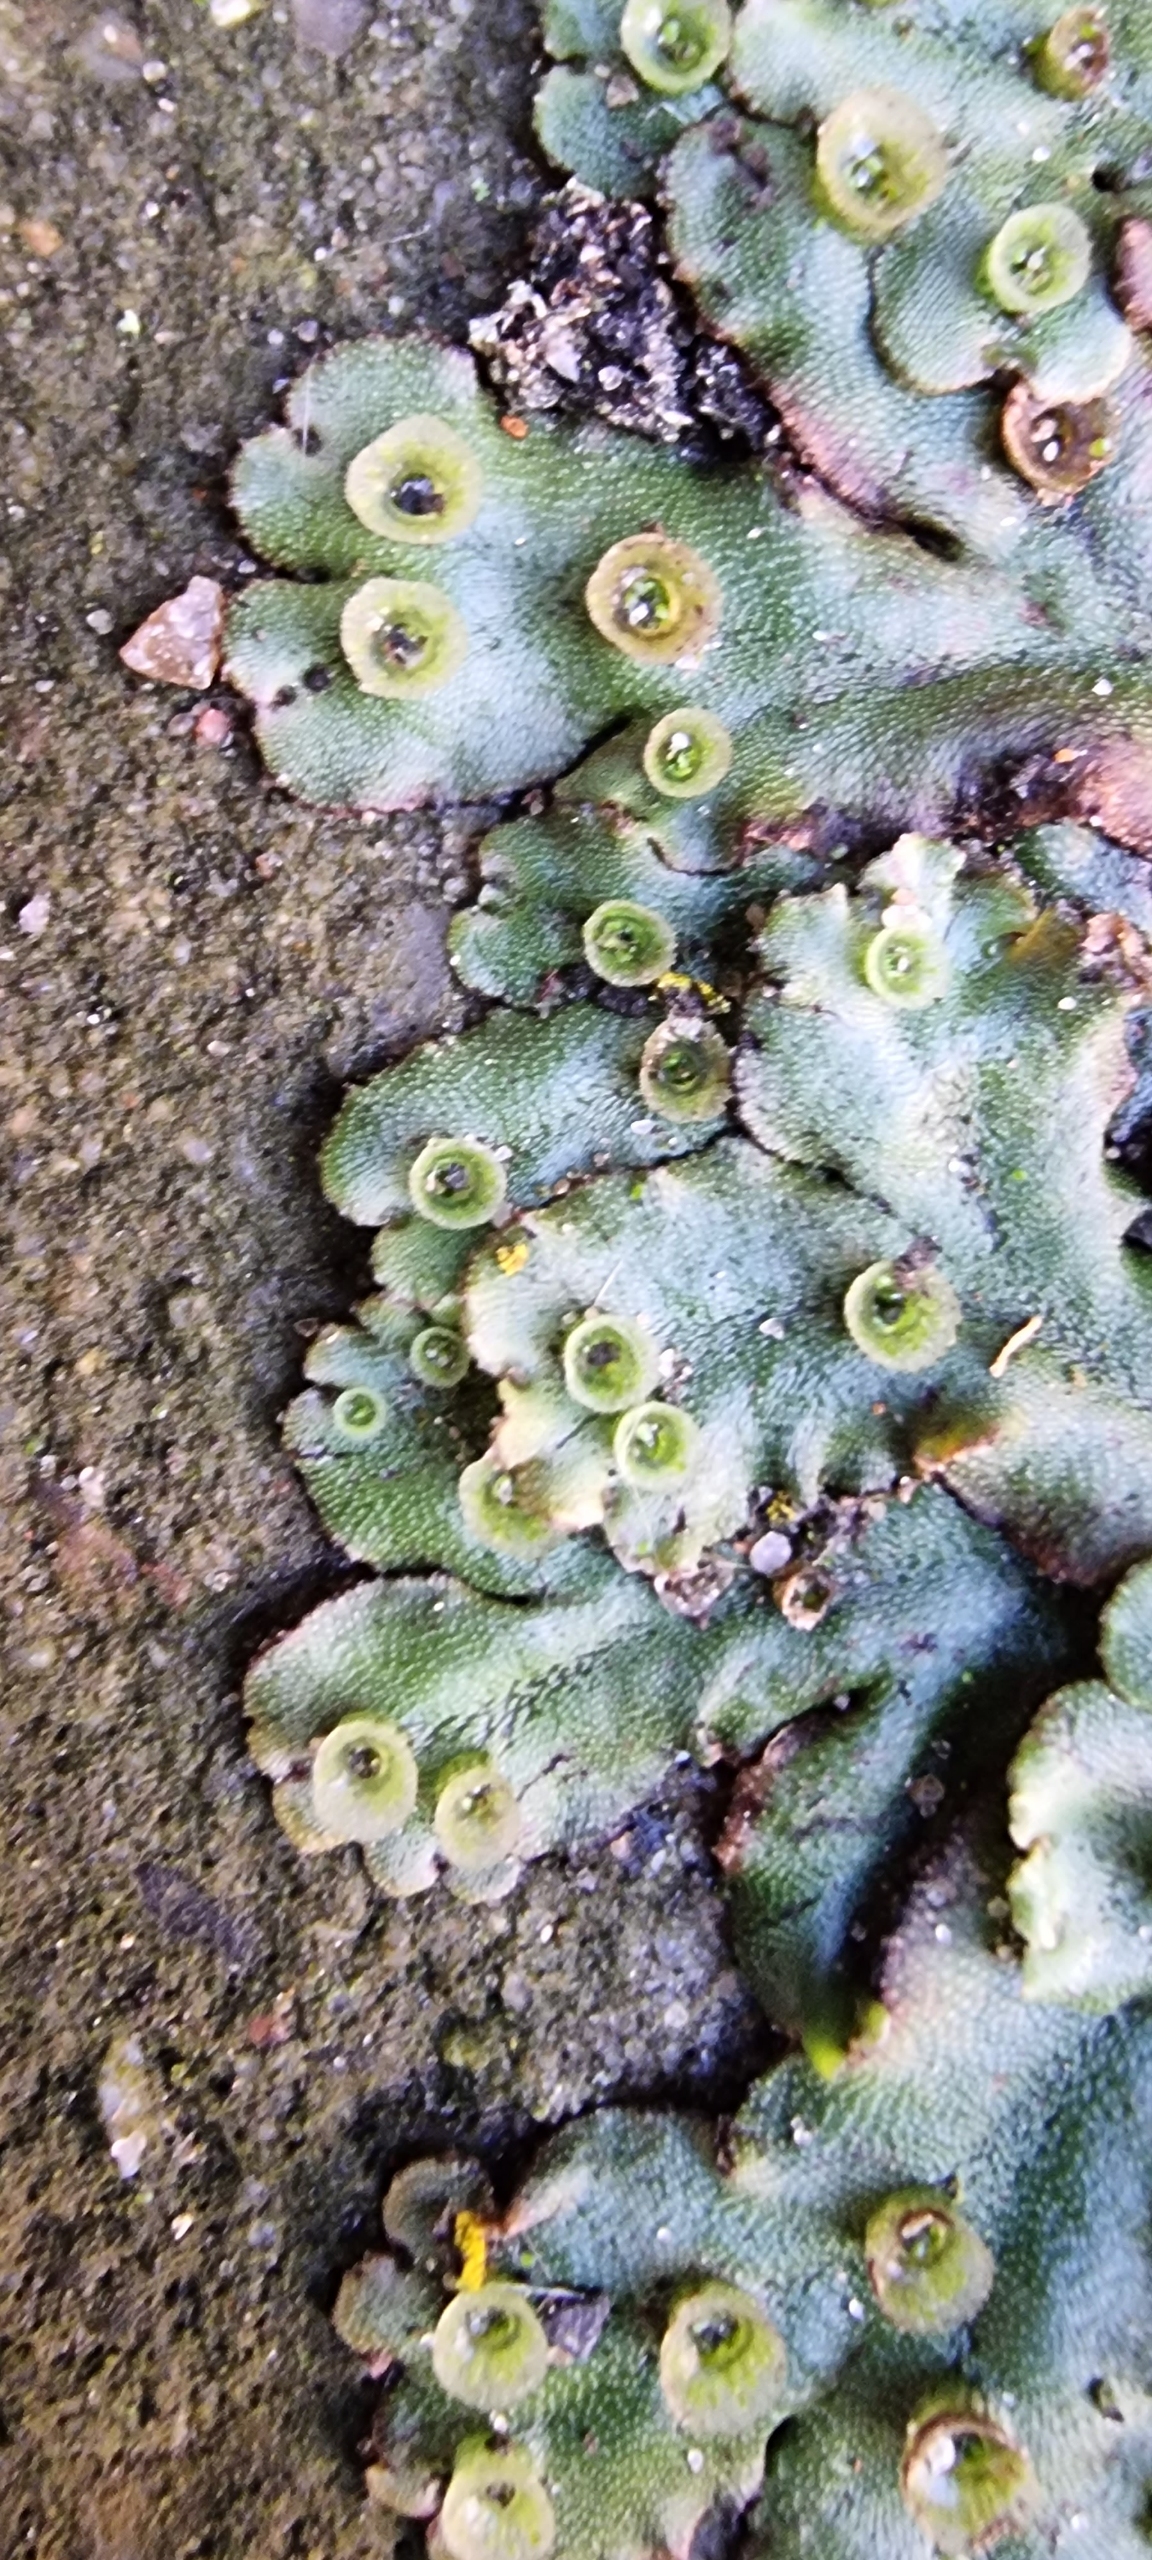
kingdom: Plantae
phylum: Marchantiophyta
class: Marchantiopsida
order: Marchantiales
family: Marchantiaceae
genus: Marchantia
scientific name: Marchantia polymorpha
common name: Almindelig lungemos (underart)
